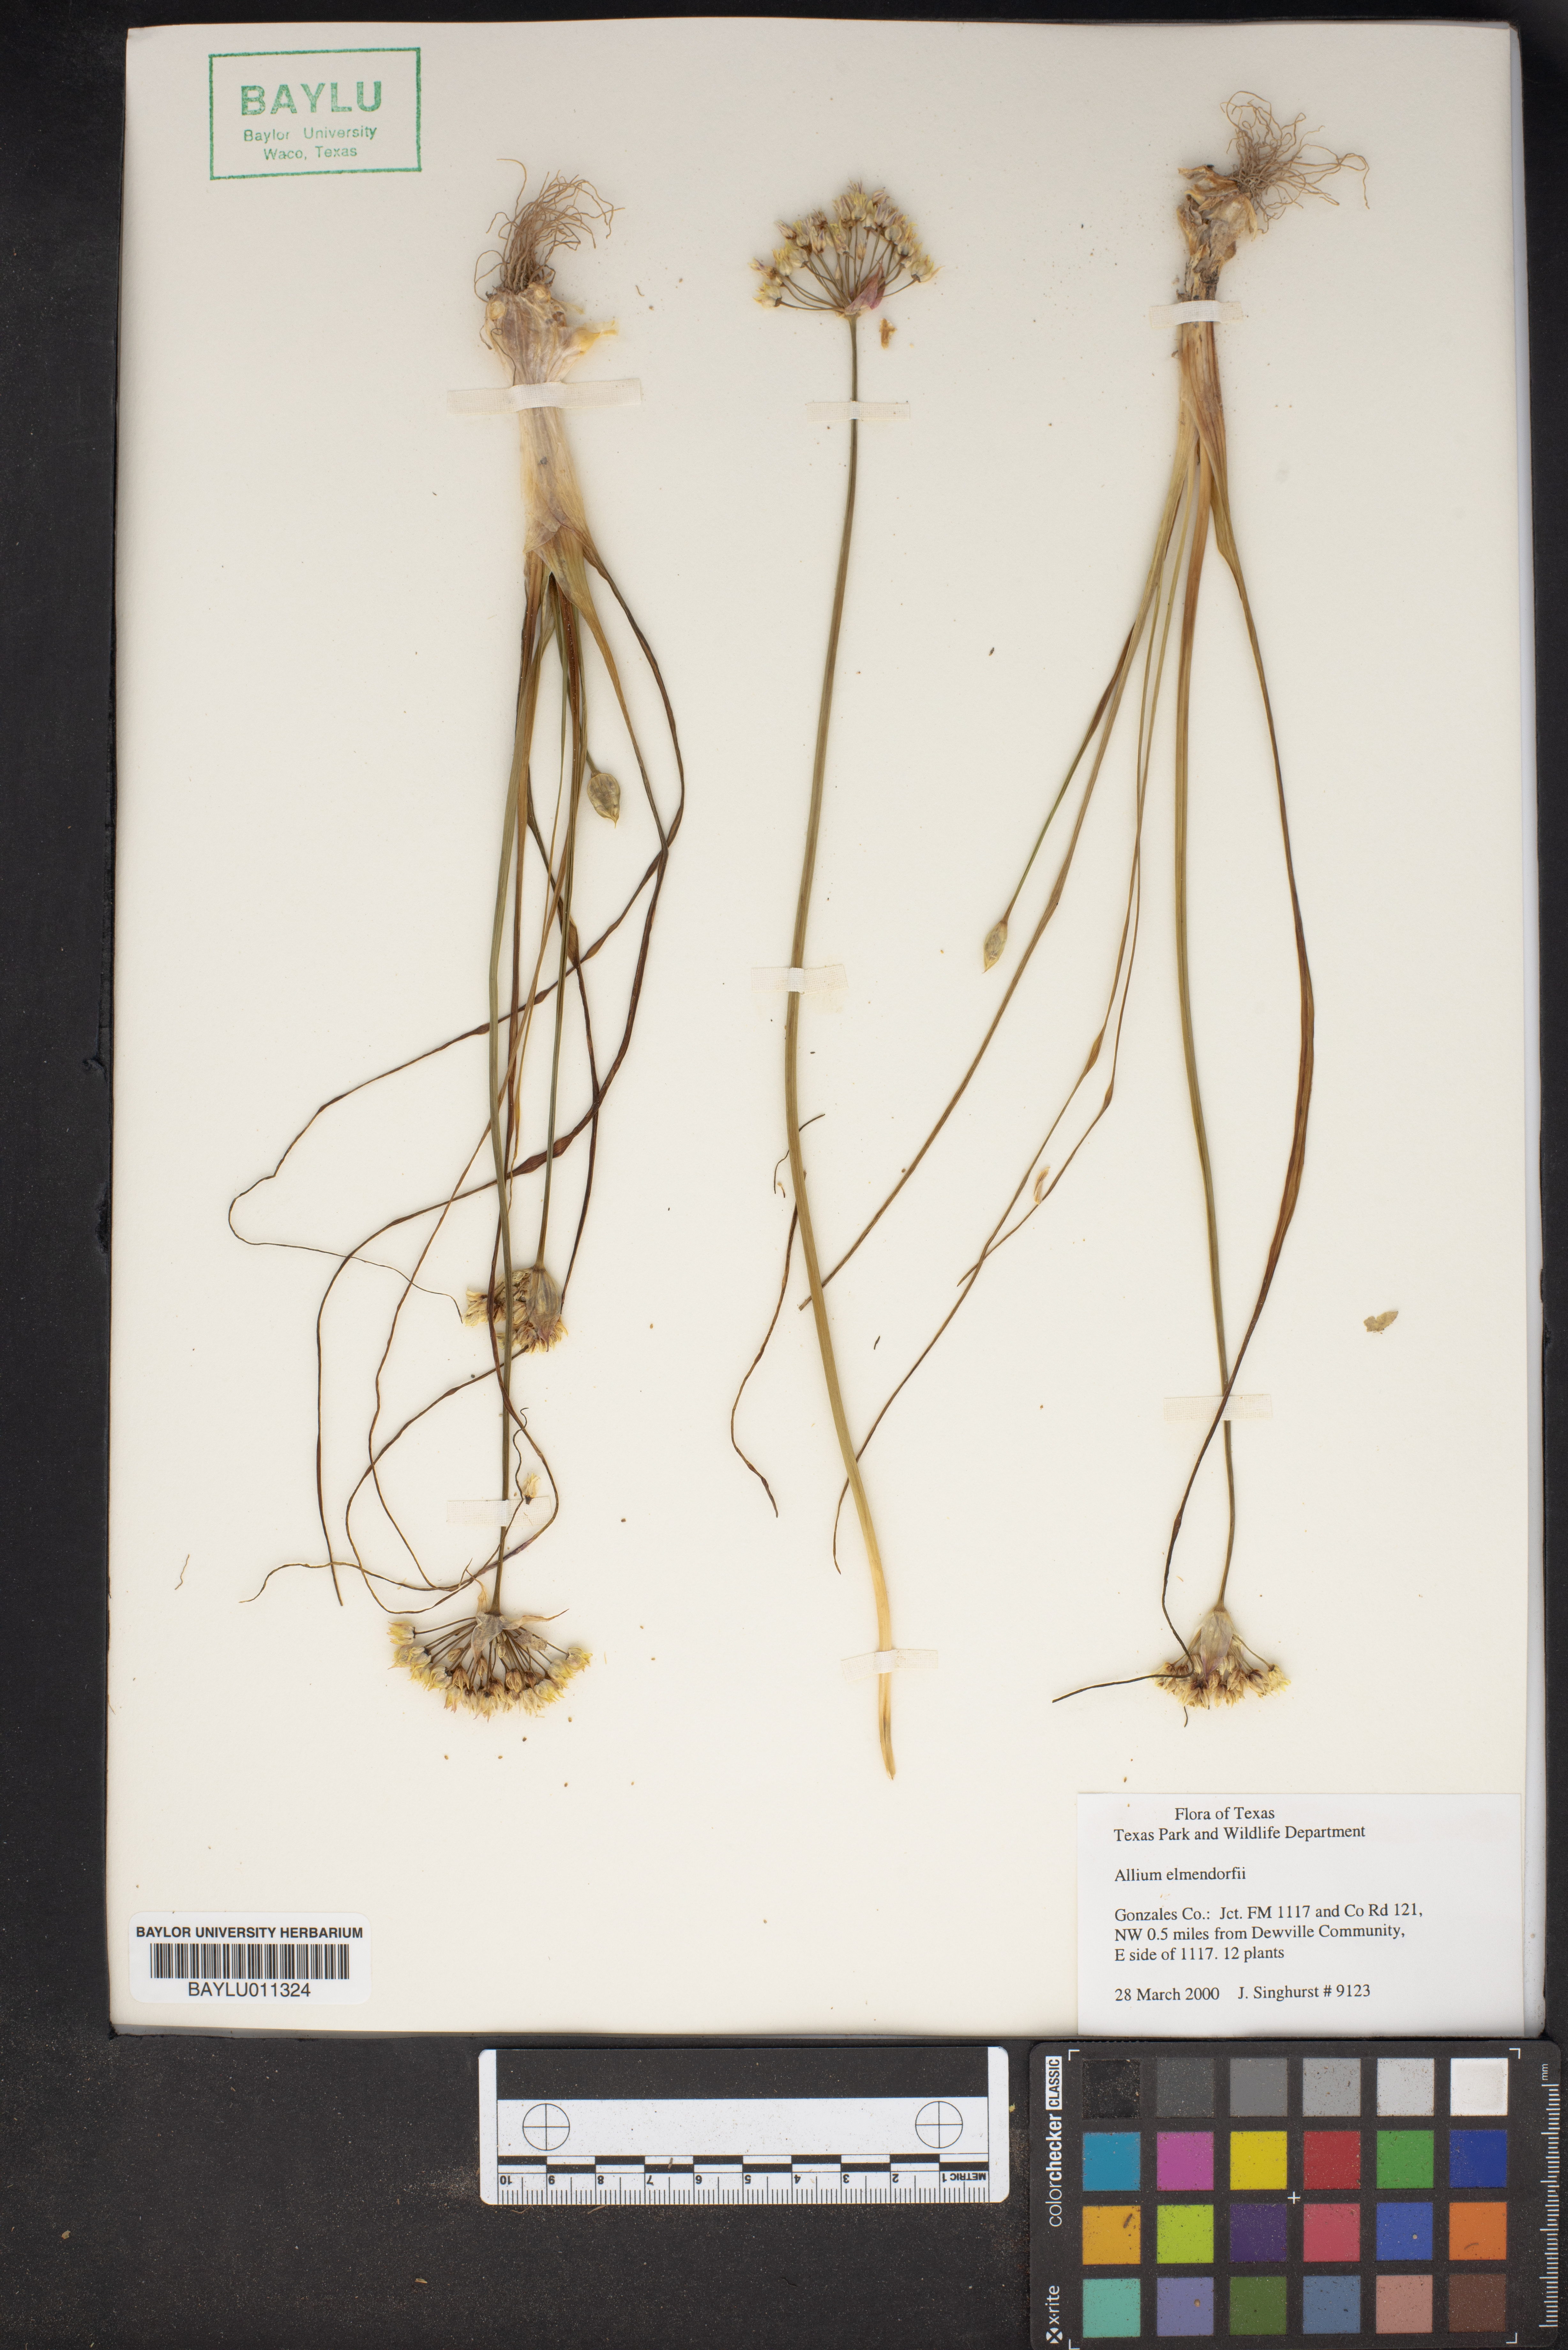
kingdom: Plantae
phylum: Tracheophyta
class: Liliopsida
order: Asparagales
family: Amaryllidaceae
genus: Allium
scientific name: Allium elmendorfii
